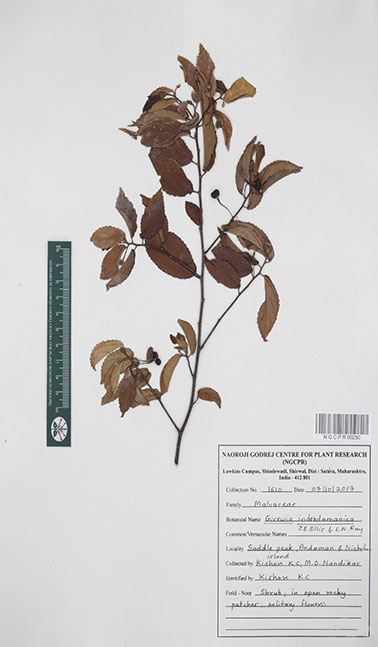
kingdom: Plantae
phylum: Tracheophyta
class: Magnoliopsida
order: Malvales
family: Malvaceae
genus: Grewia
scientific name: Grewia indandamanica
